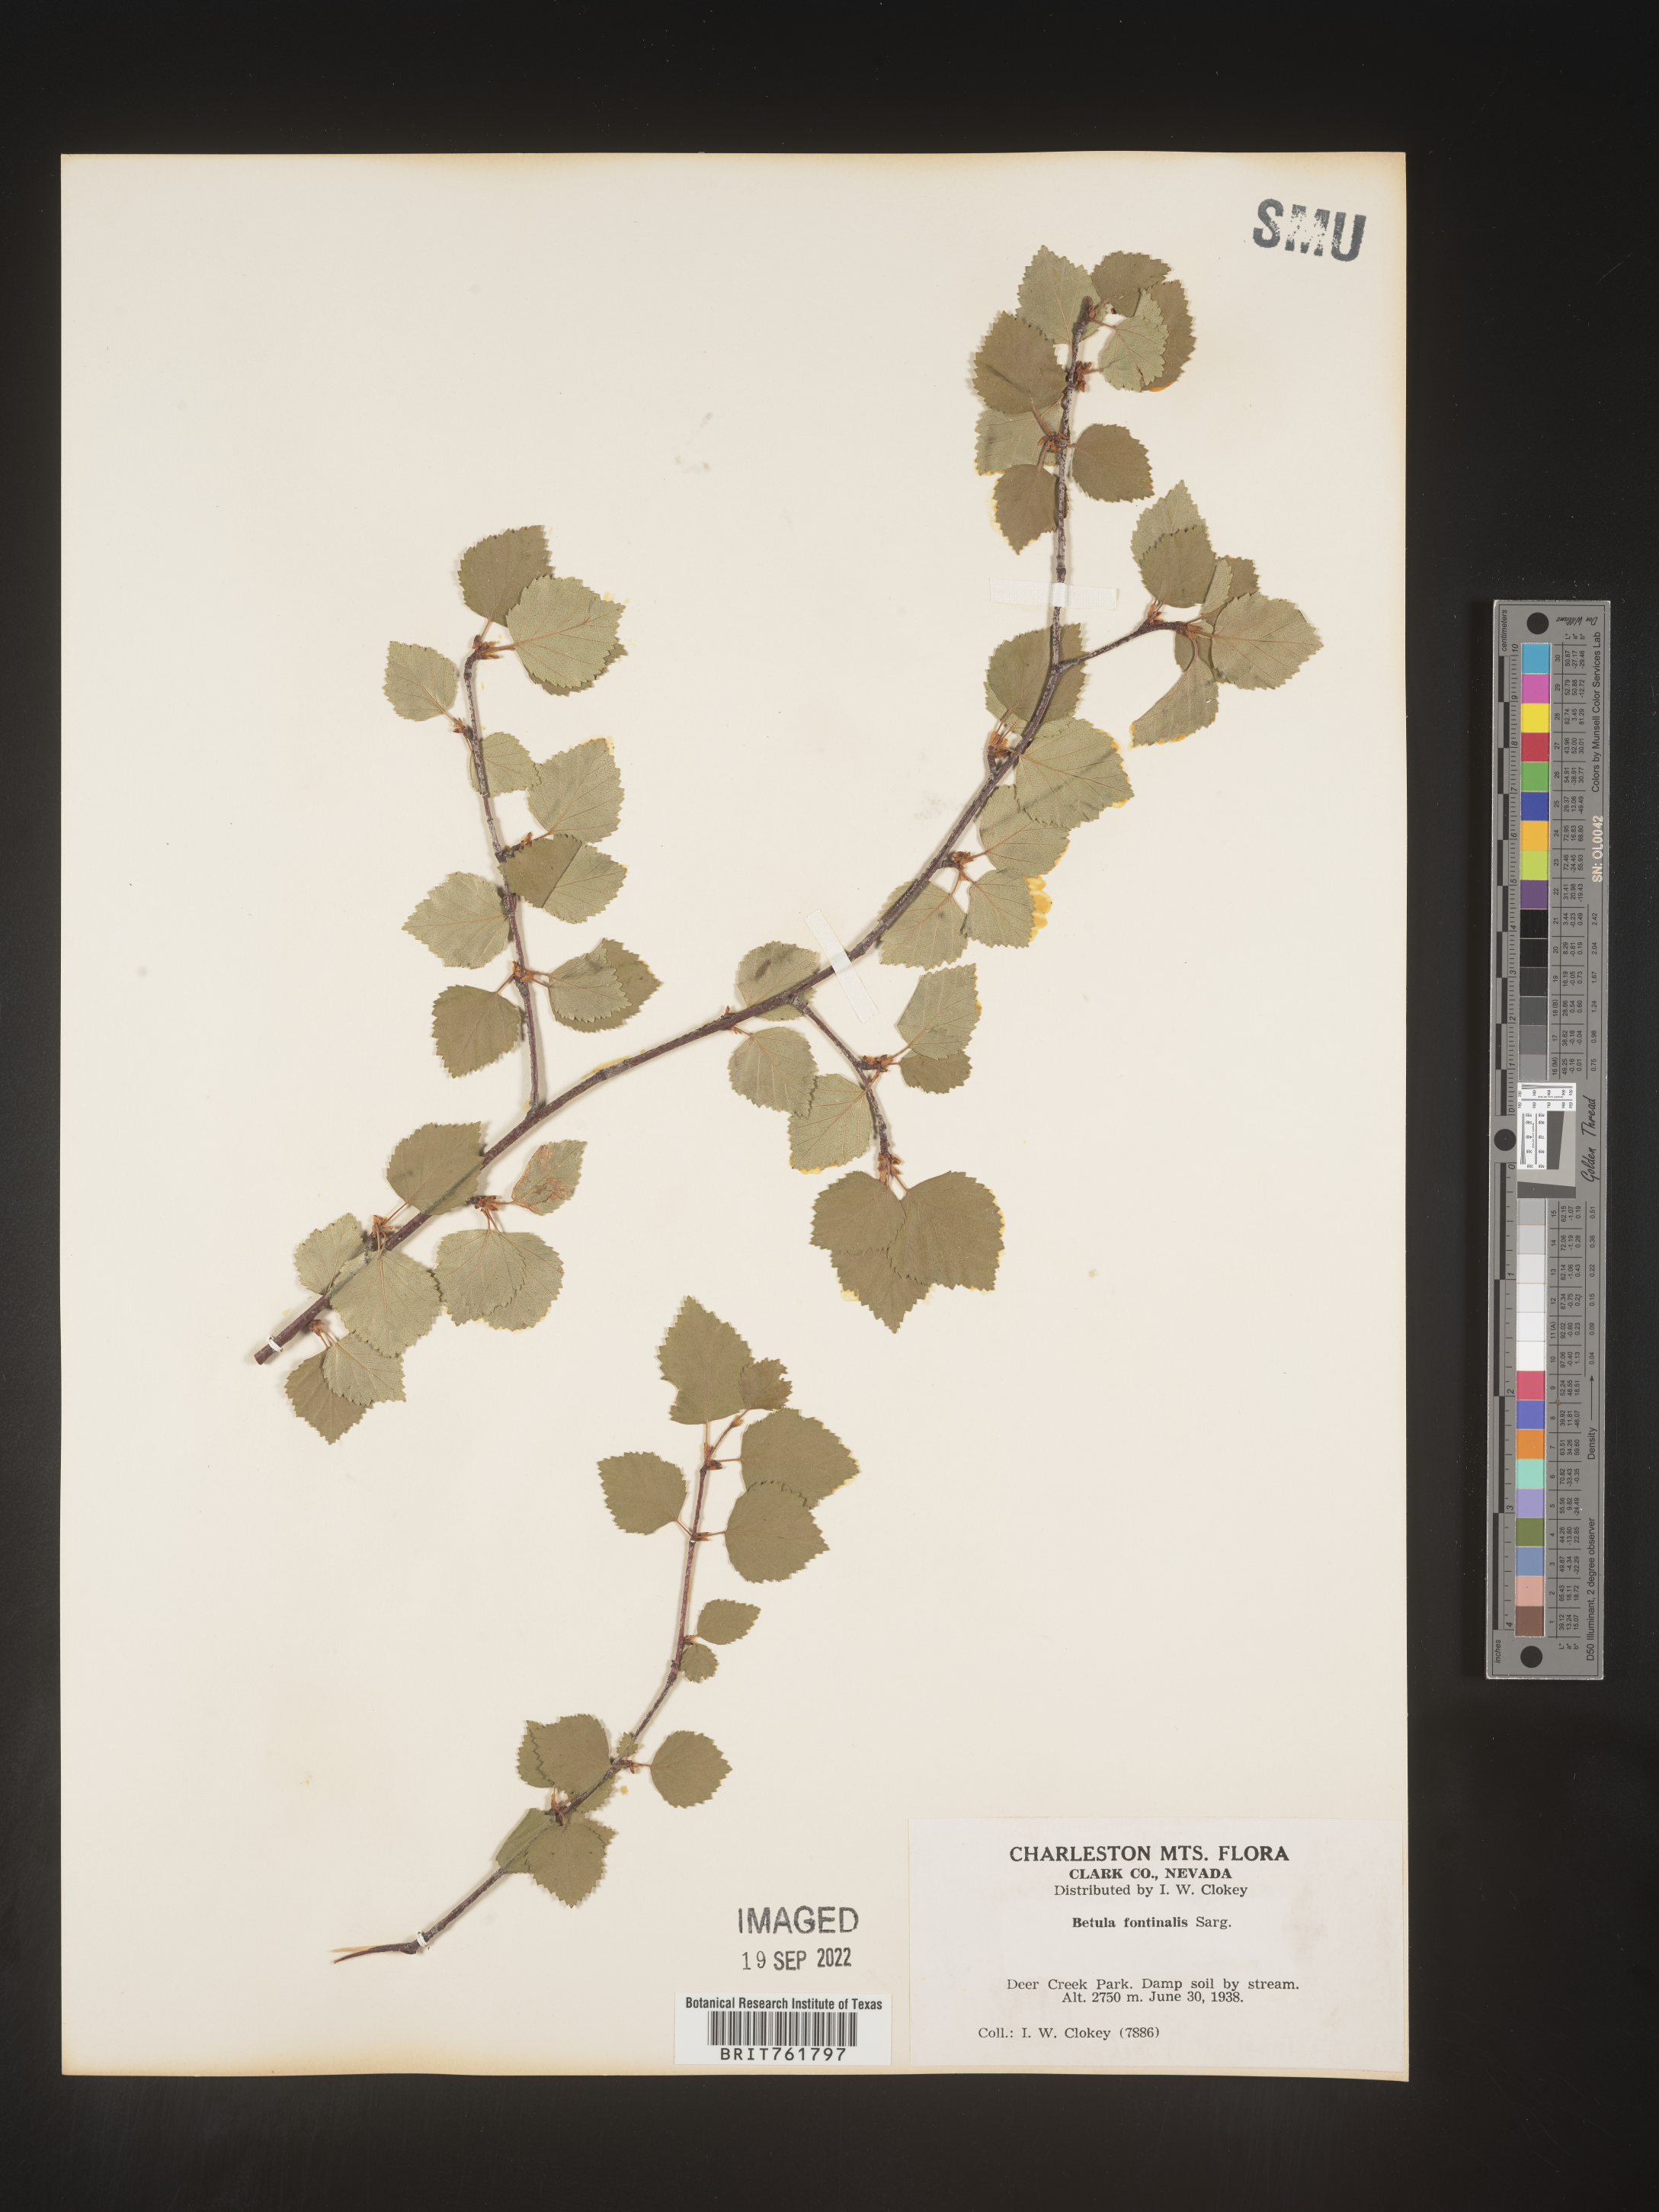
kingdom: Plantae
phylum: Tracheophyta
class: Magnoliopsida
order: Fagales
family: Betulaceae
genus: Betula
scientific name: Betula occidentalis
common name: River birch
